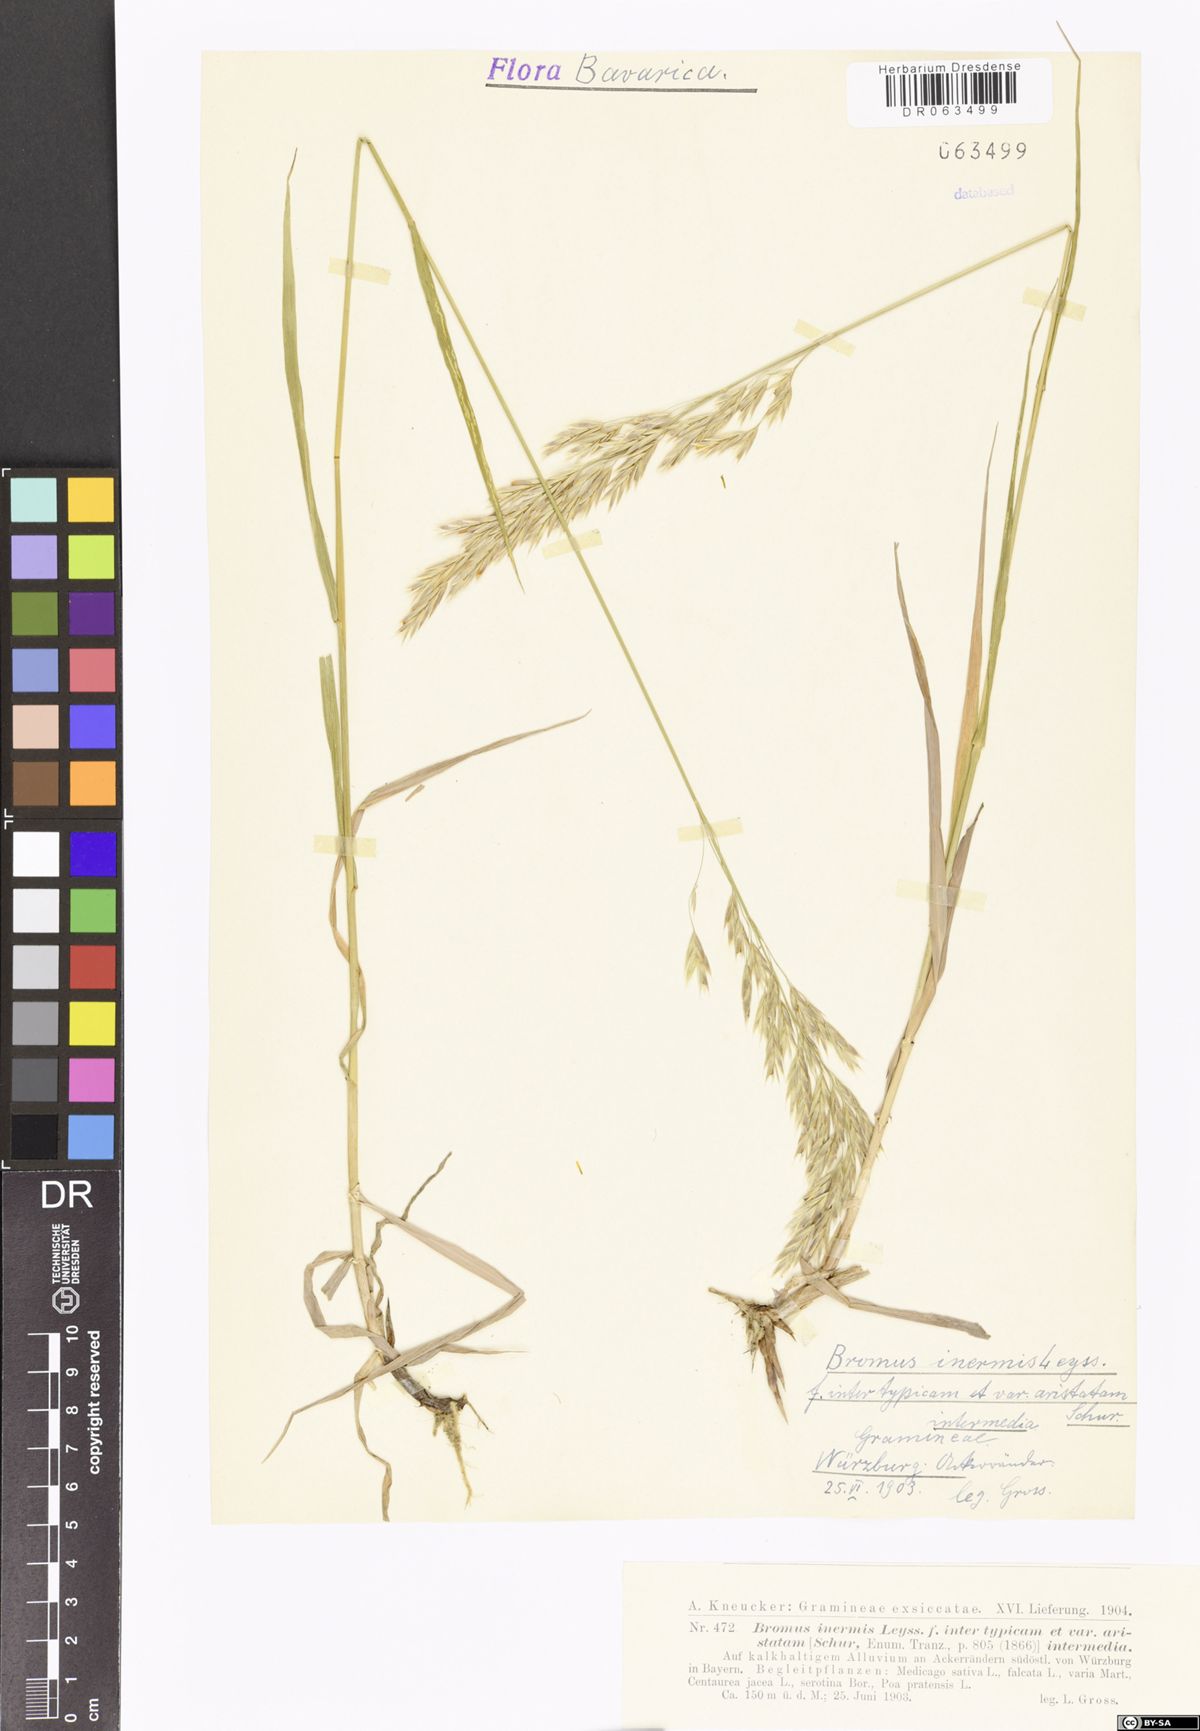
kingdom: Plantae
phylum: Tracheophyta
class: Liliopsida
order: Poales
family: Poaceae
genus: Bromus
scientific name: Bromus inermis
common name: Smooth brome
